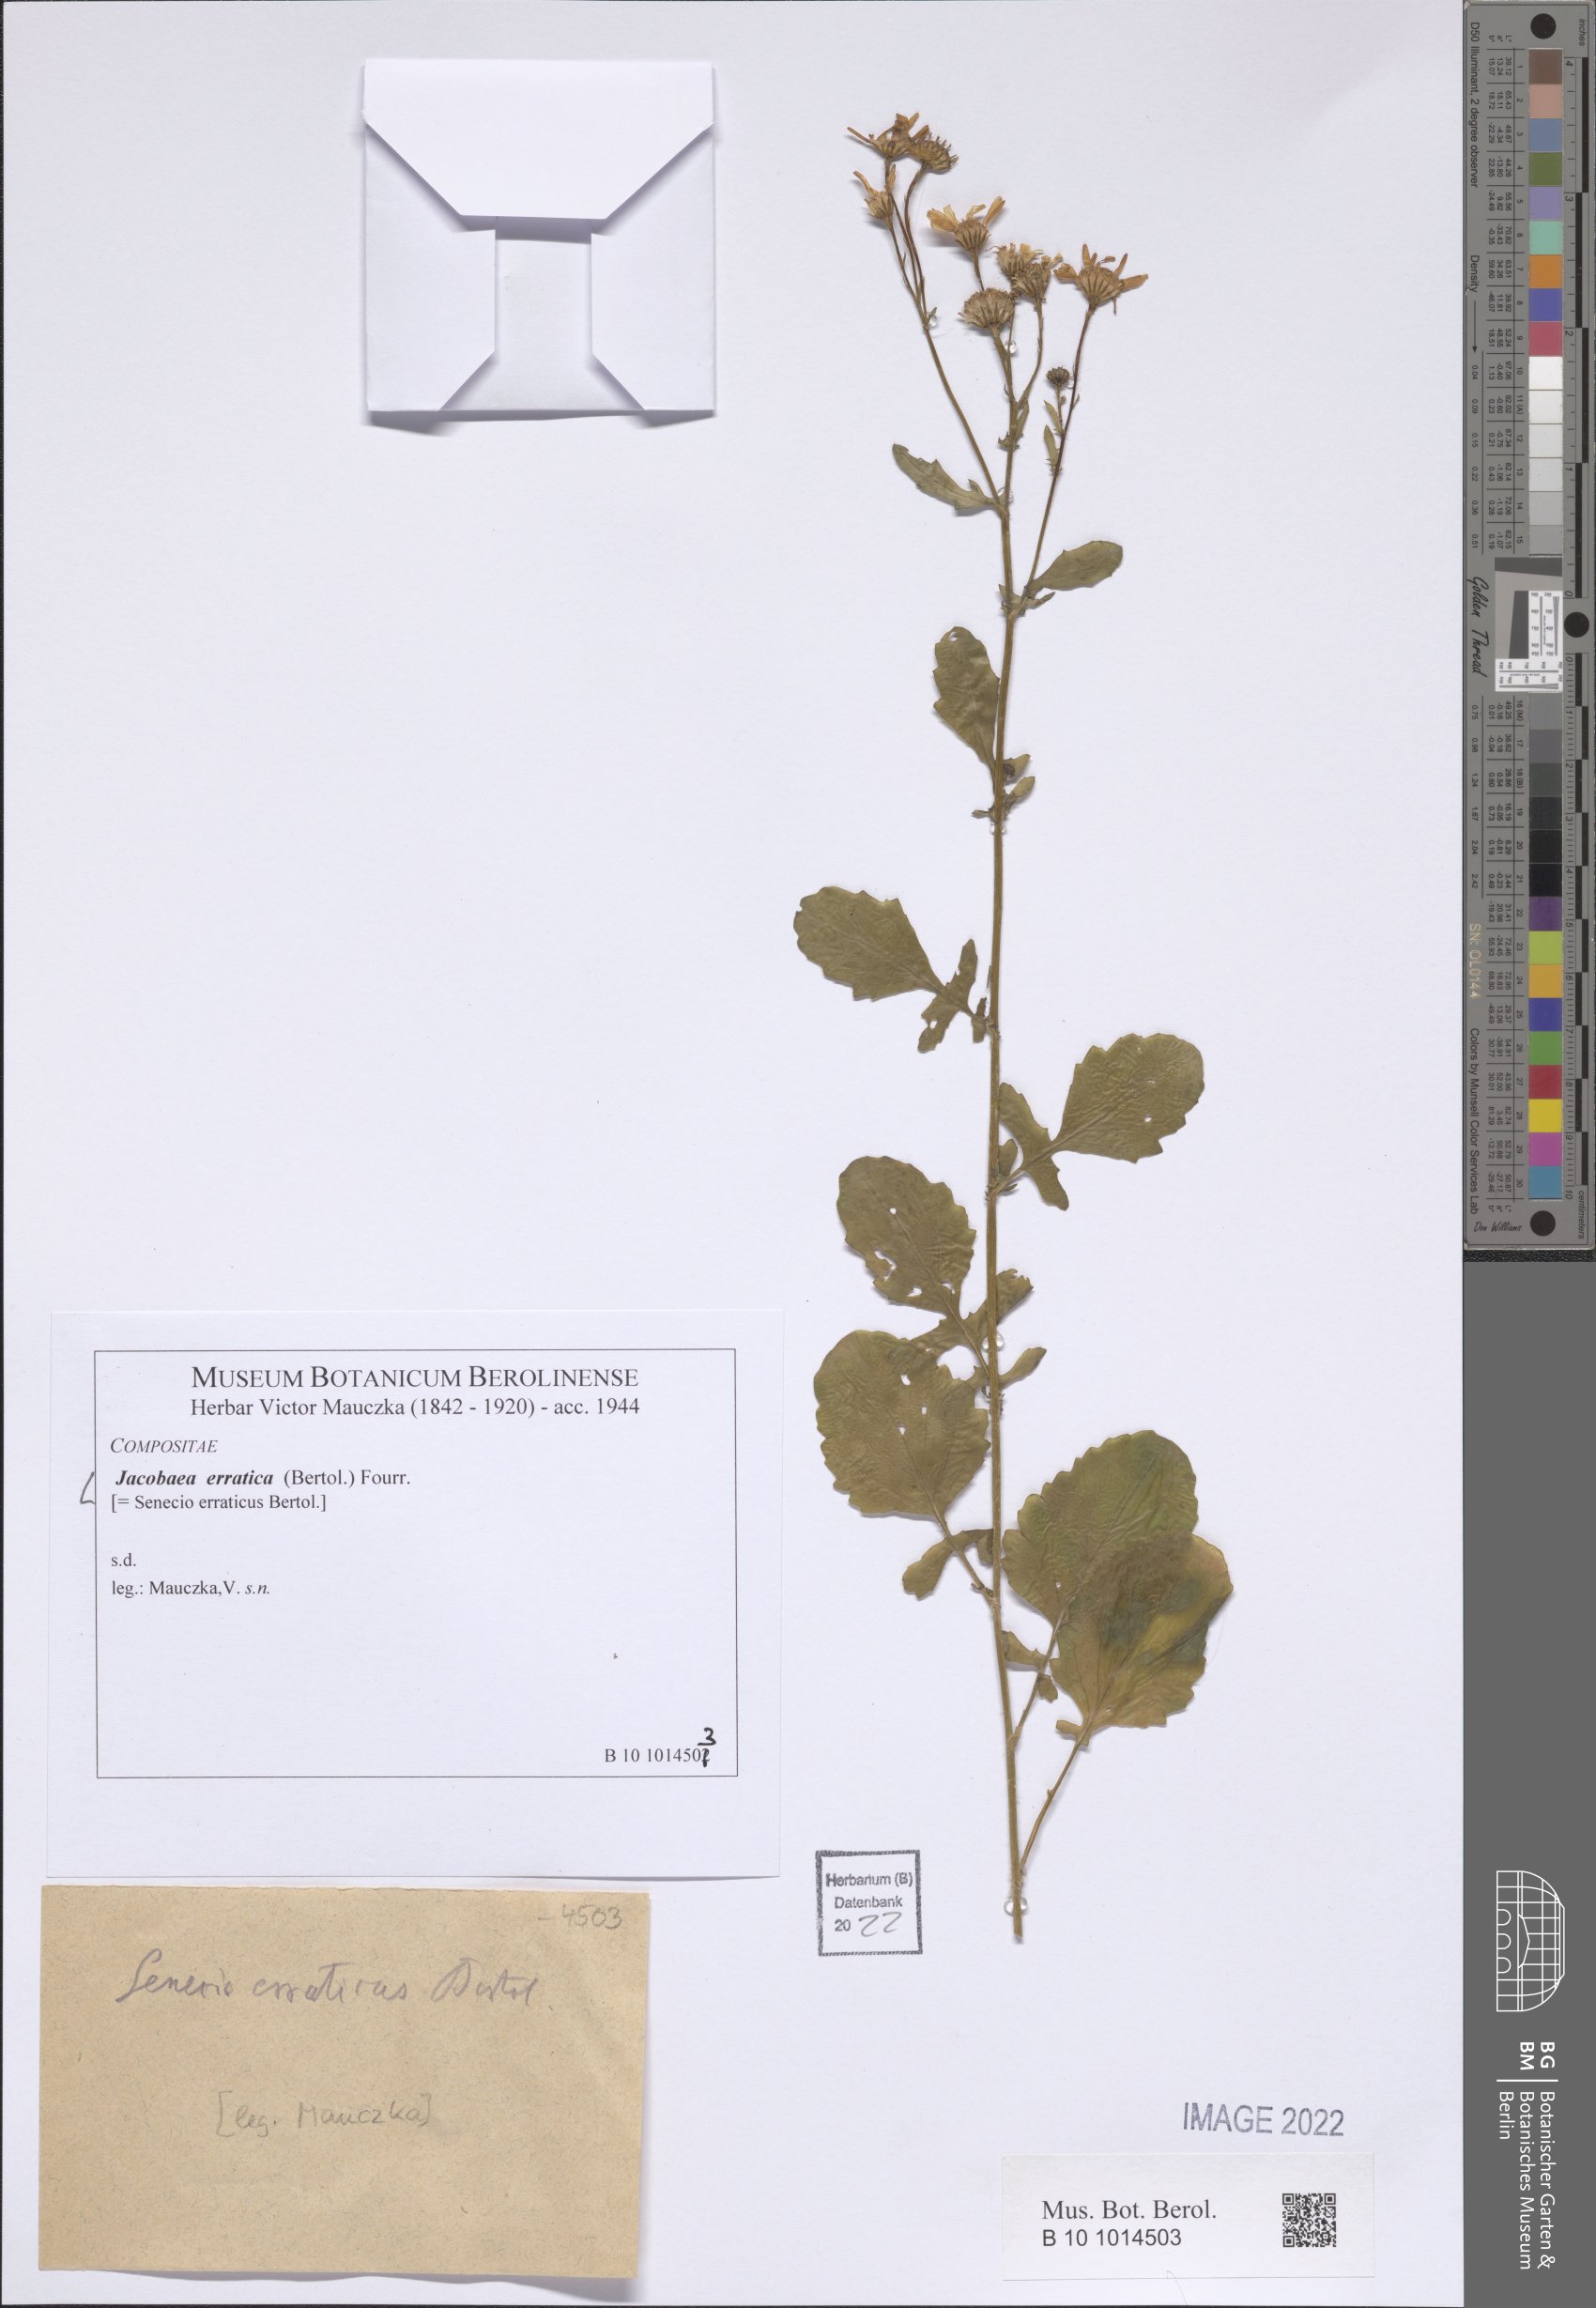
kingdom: Plantae
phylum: Tracheophyta
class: Magnoliopsida
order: Asterales
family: Asteraceae
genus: Jacobaea
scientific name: Jacobaea erratica
